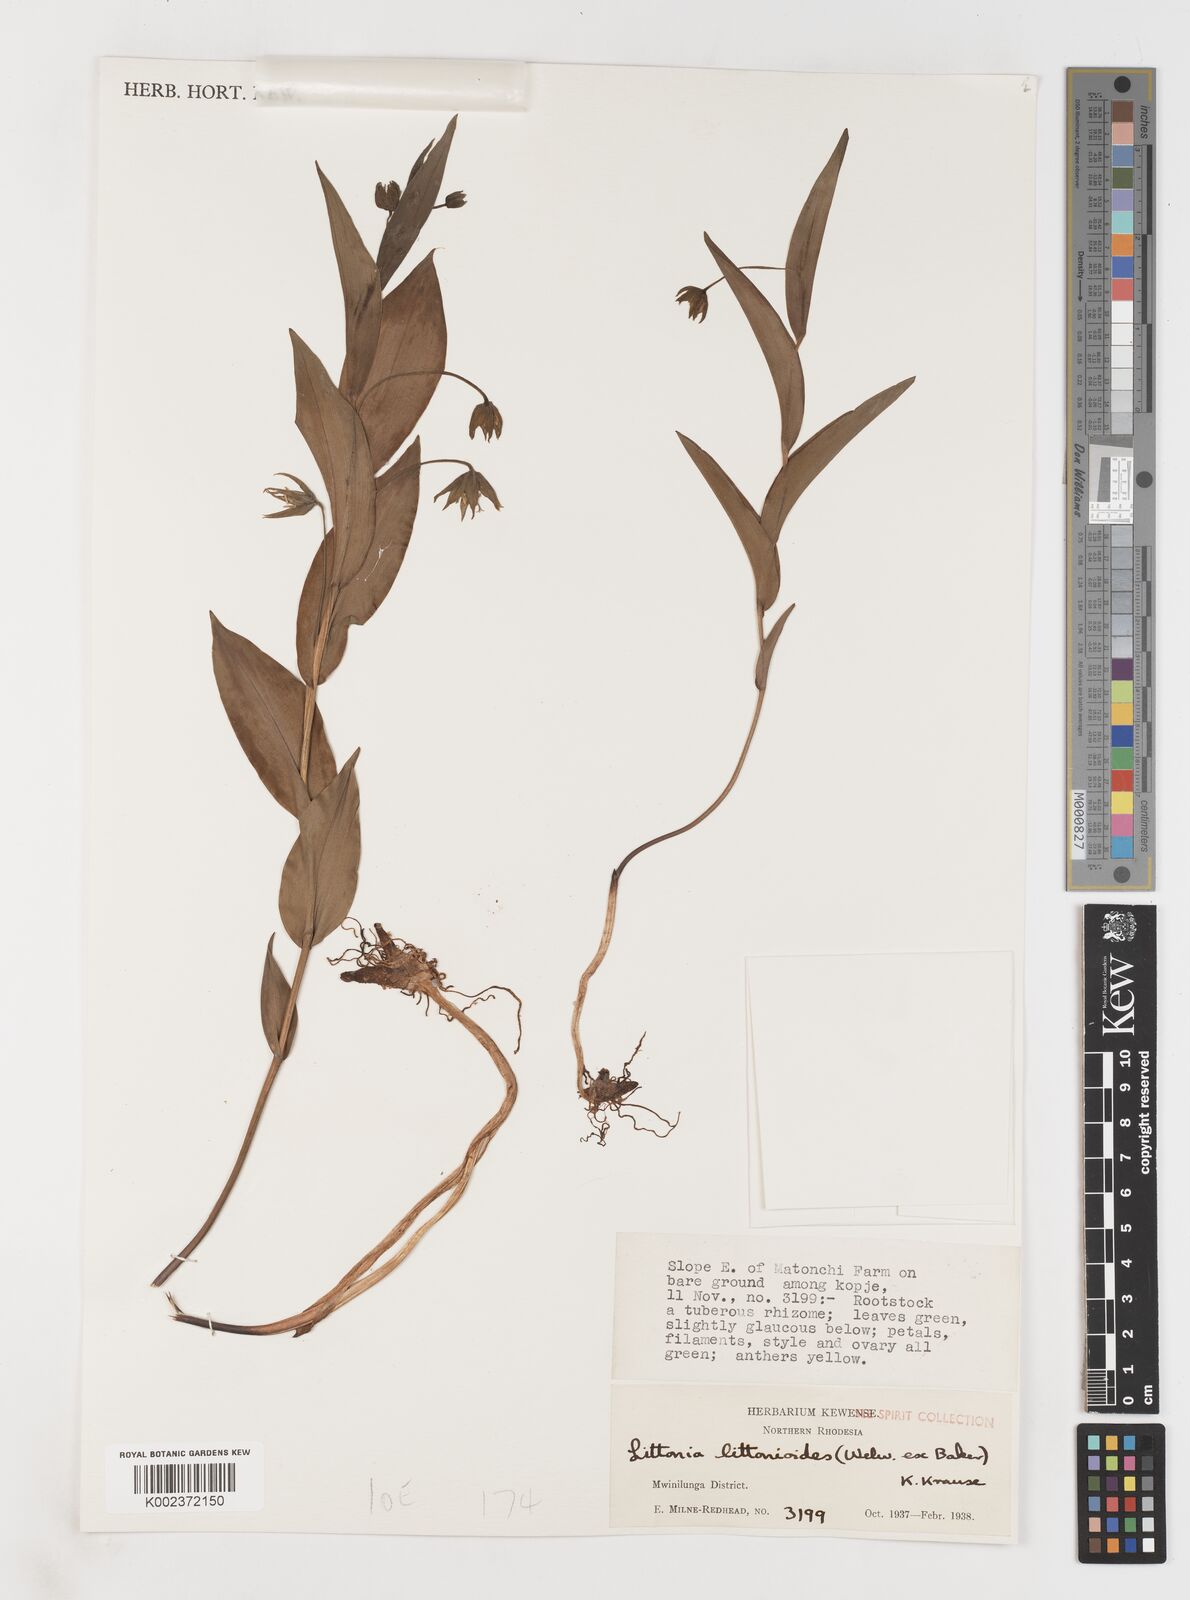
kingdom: Plantae
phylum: Tracheophyta
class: Liliopsida
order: Liliales
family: Colchicaceae
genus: Gloriosa
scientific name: Gloriosa littonioides
